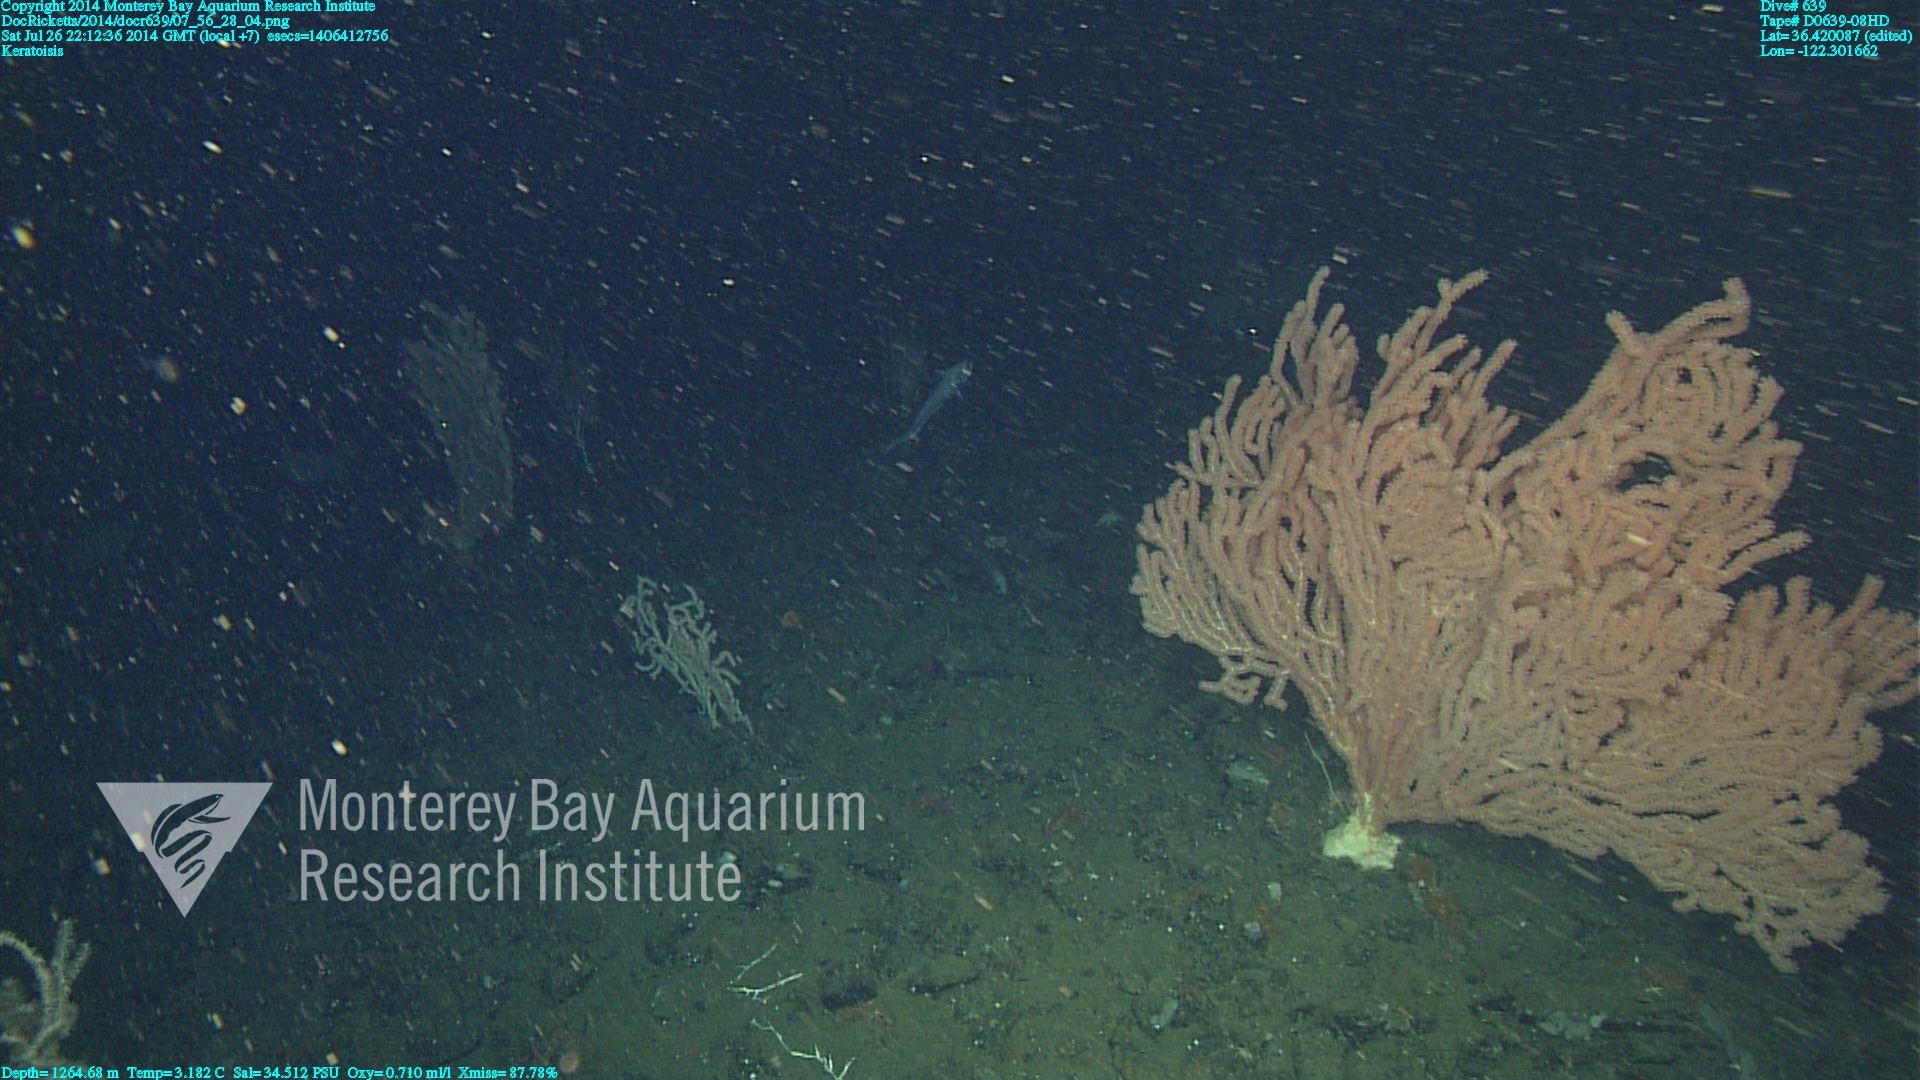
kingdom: Animalia
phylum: Cnidaria
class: Anthozoa
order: Scleralcyonacea
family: Keratoisididae
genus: Keratoisis
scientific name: Keratoisis
